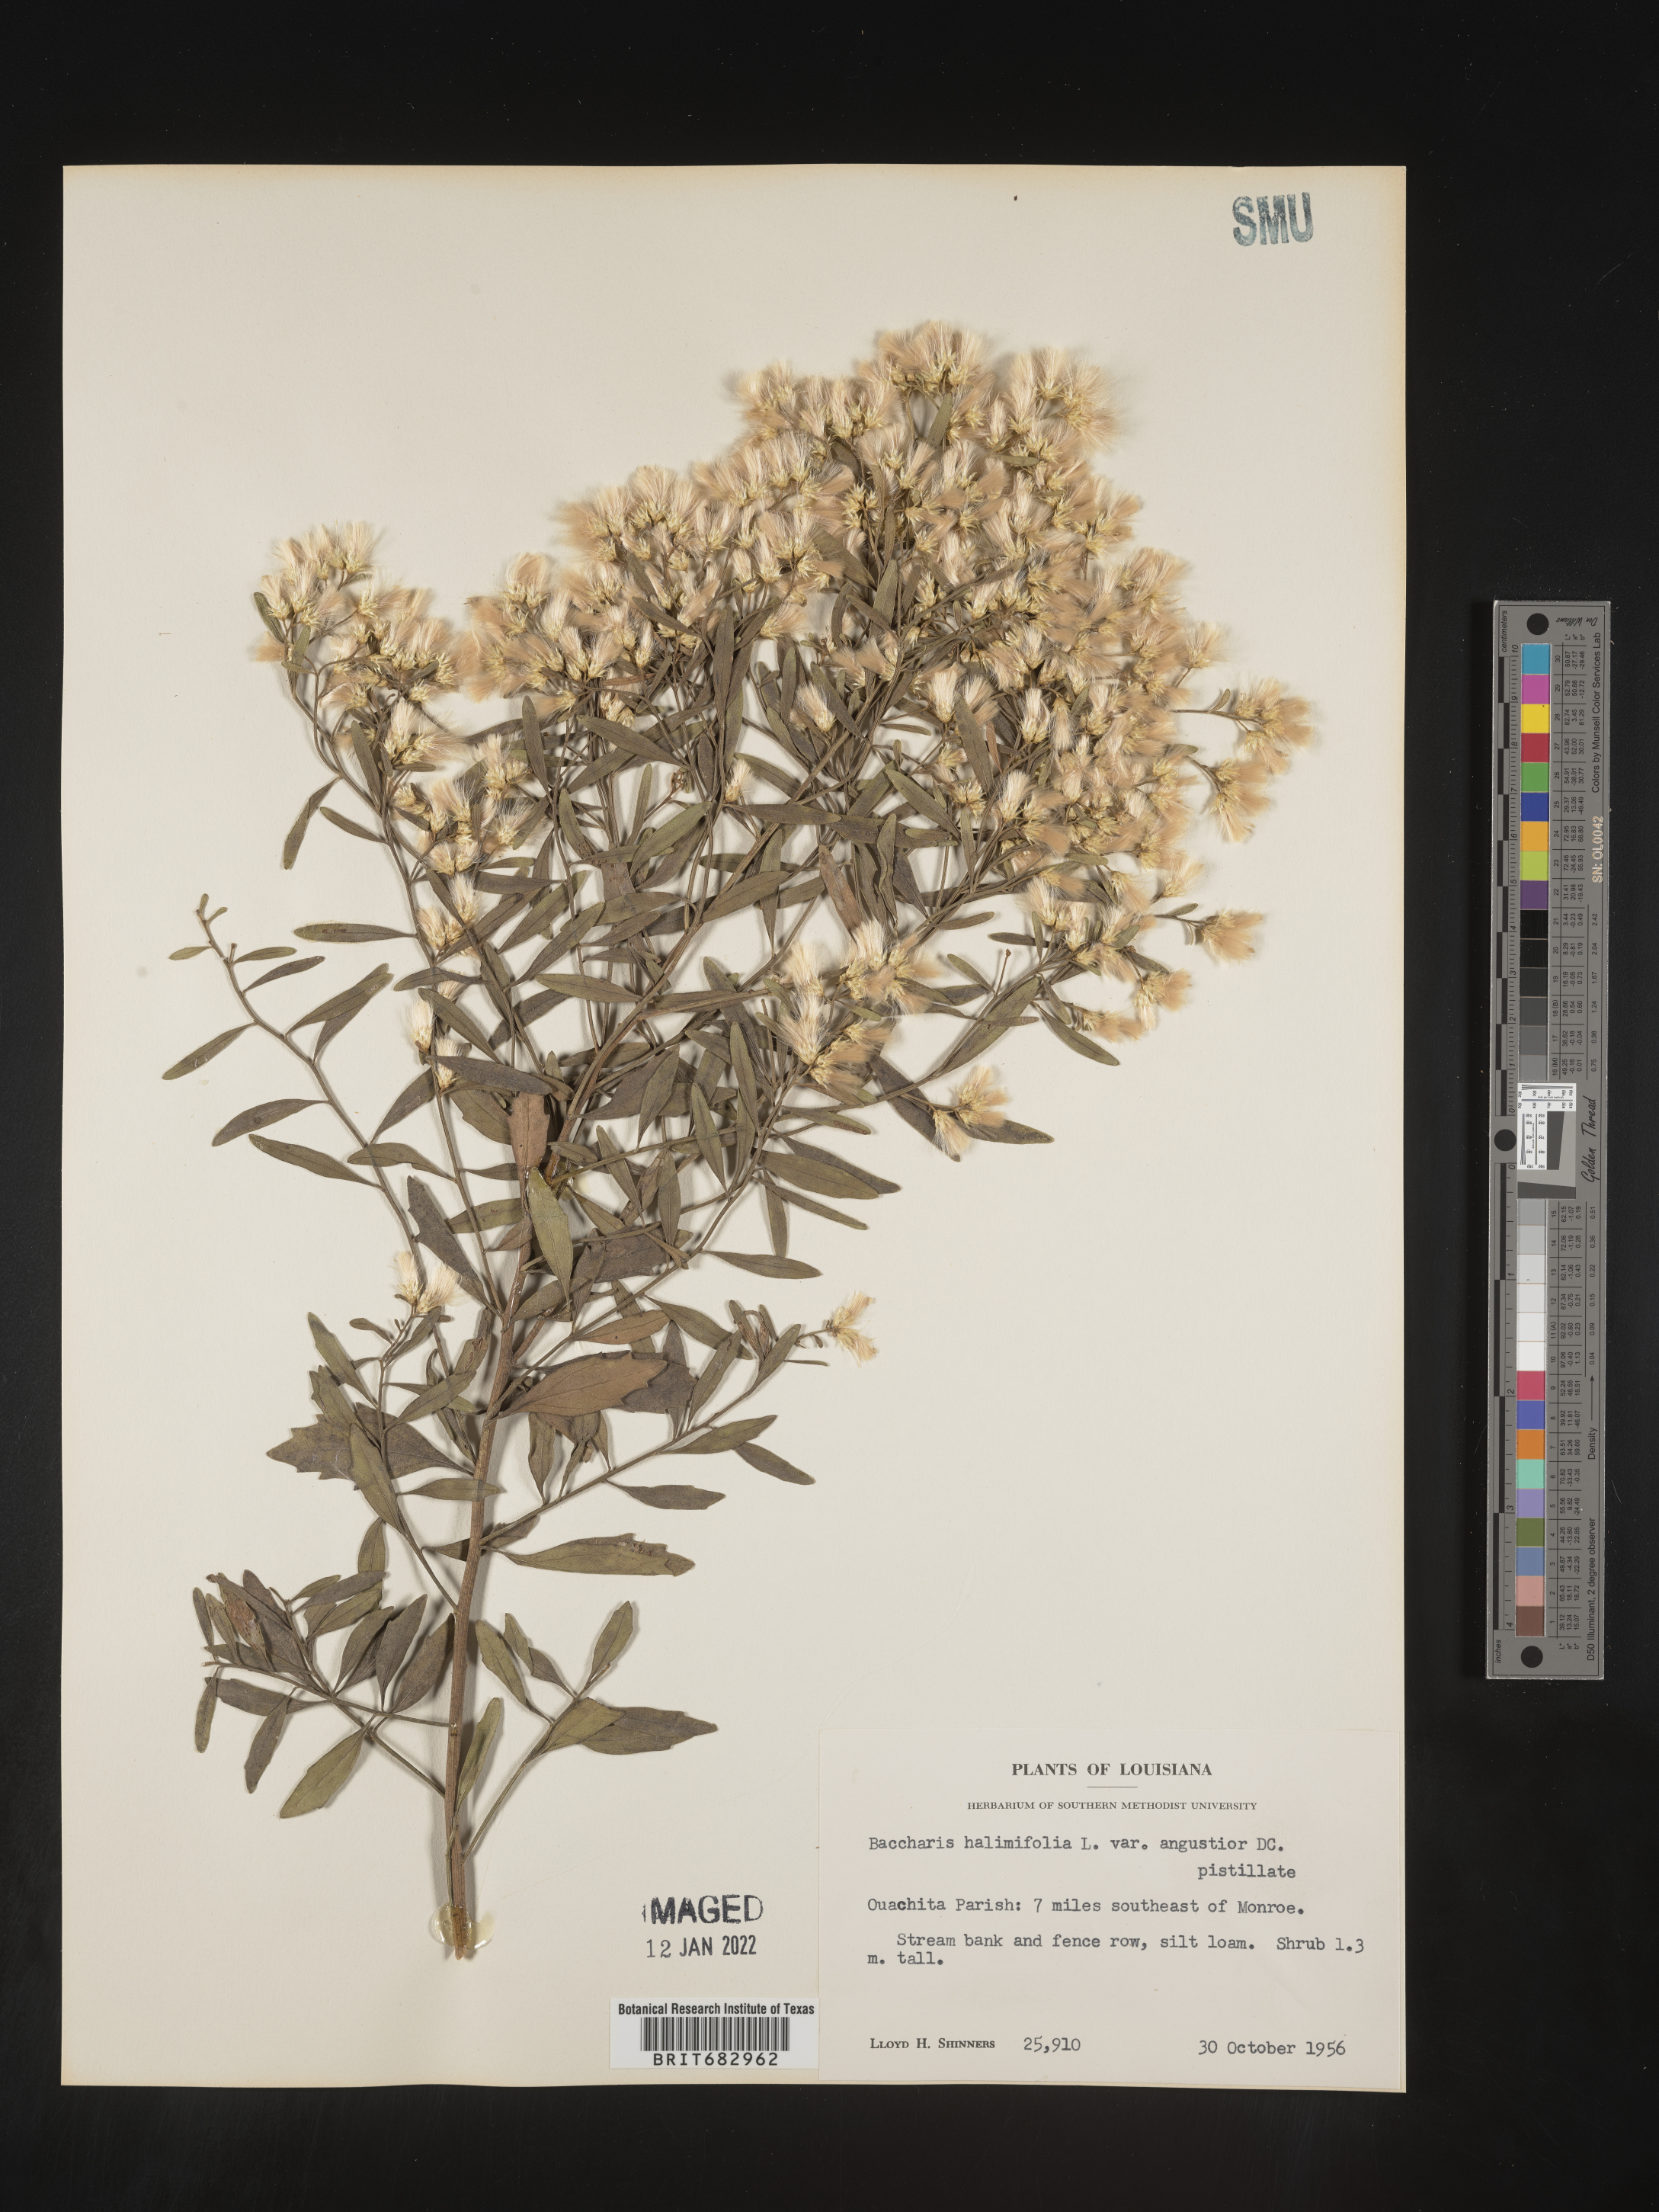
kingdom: Plantae
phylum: Tracheophyta
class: Magnoliopsida
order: Asterales
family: Asteraceae
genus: Nidorella
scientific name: Nidorella ivifolia
